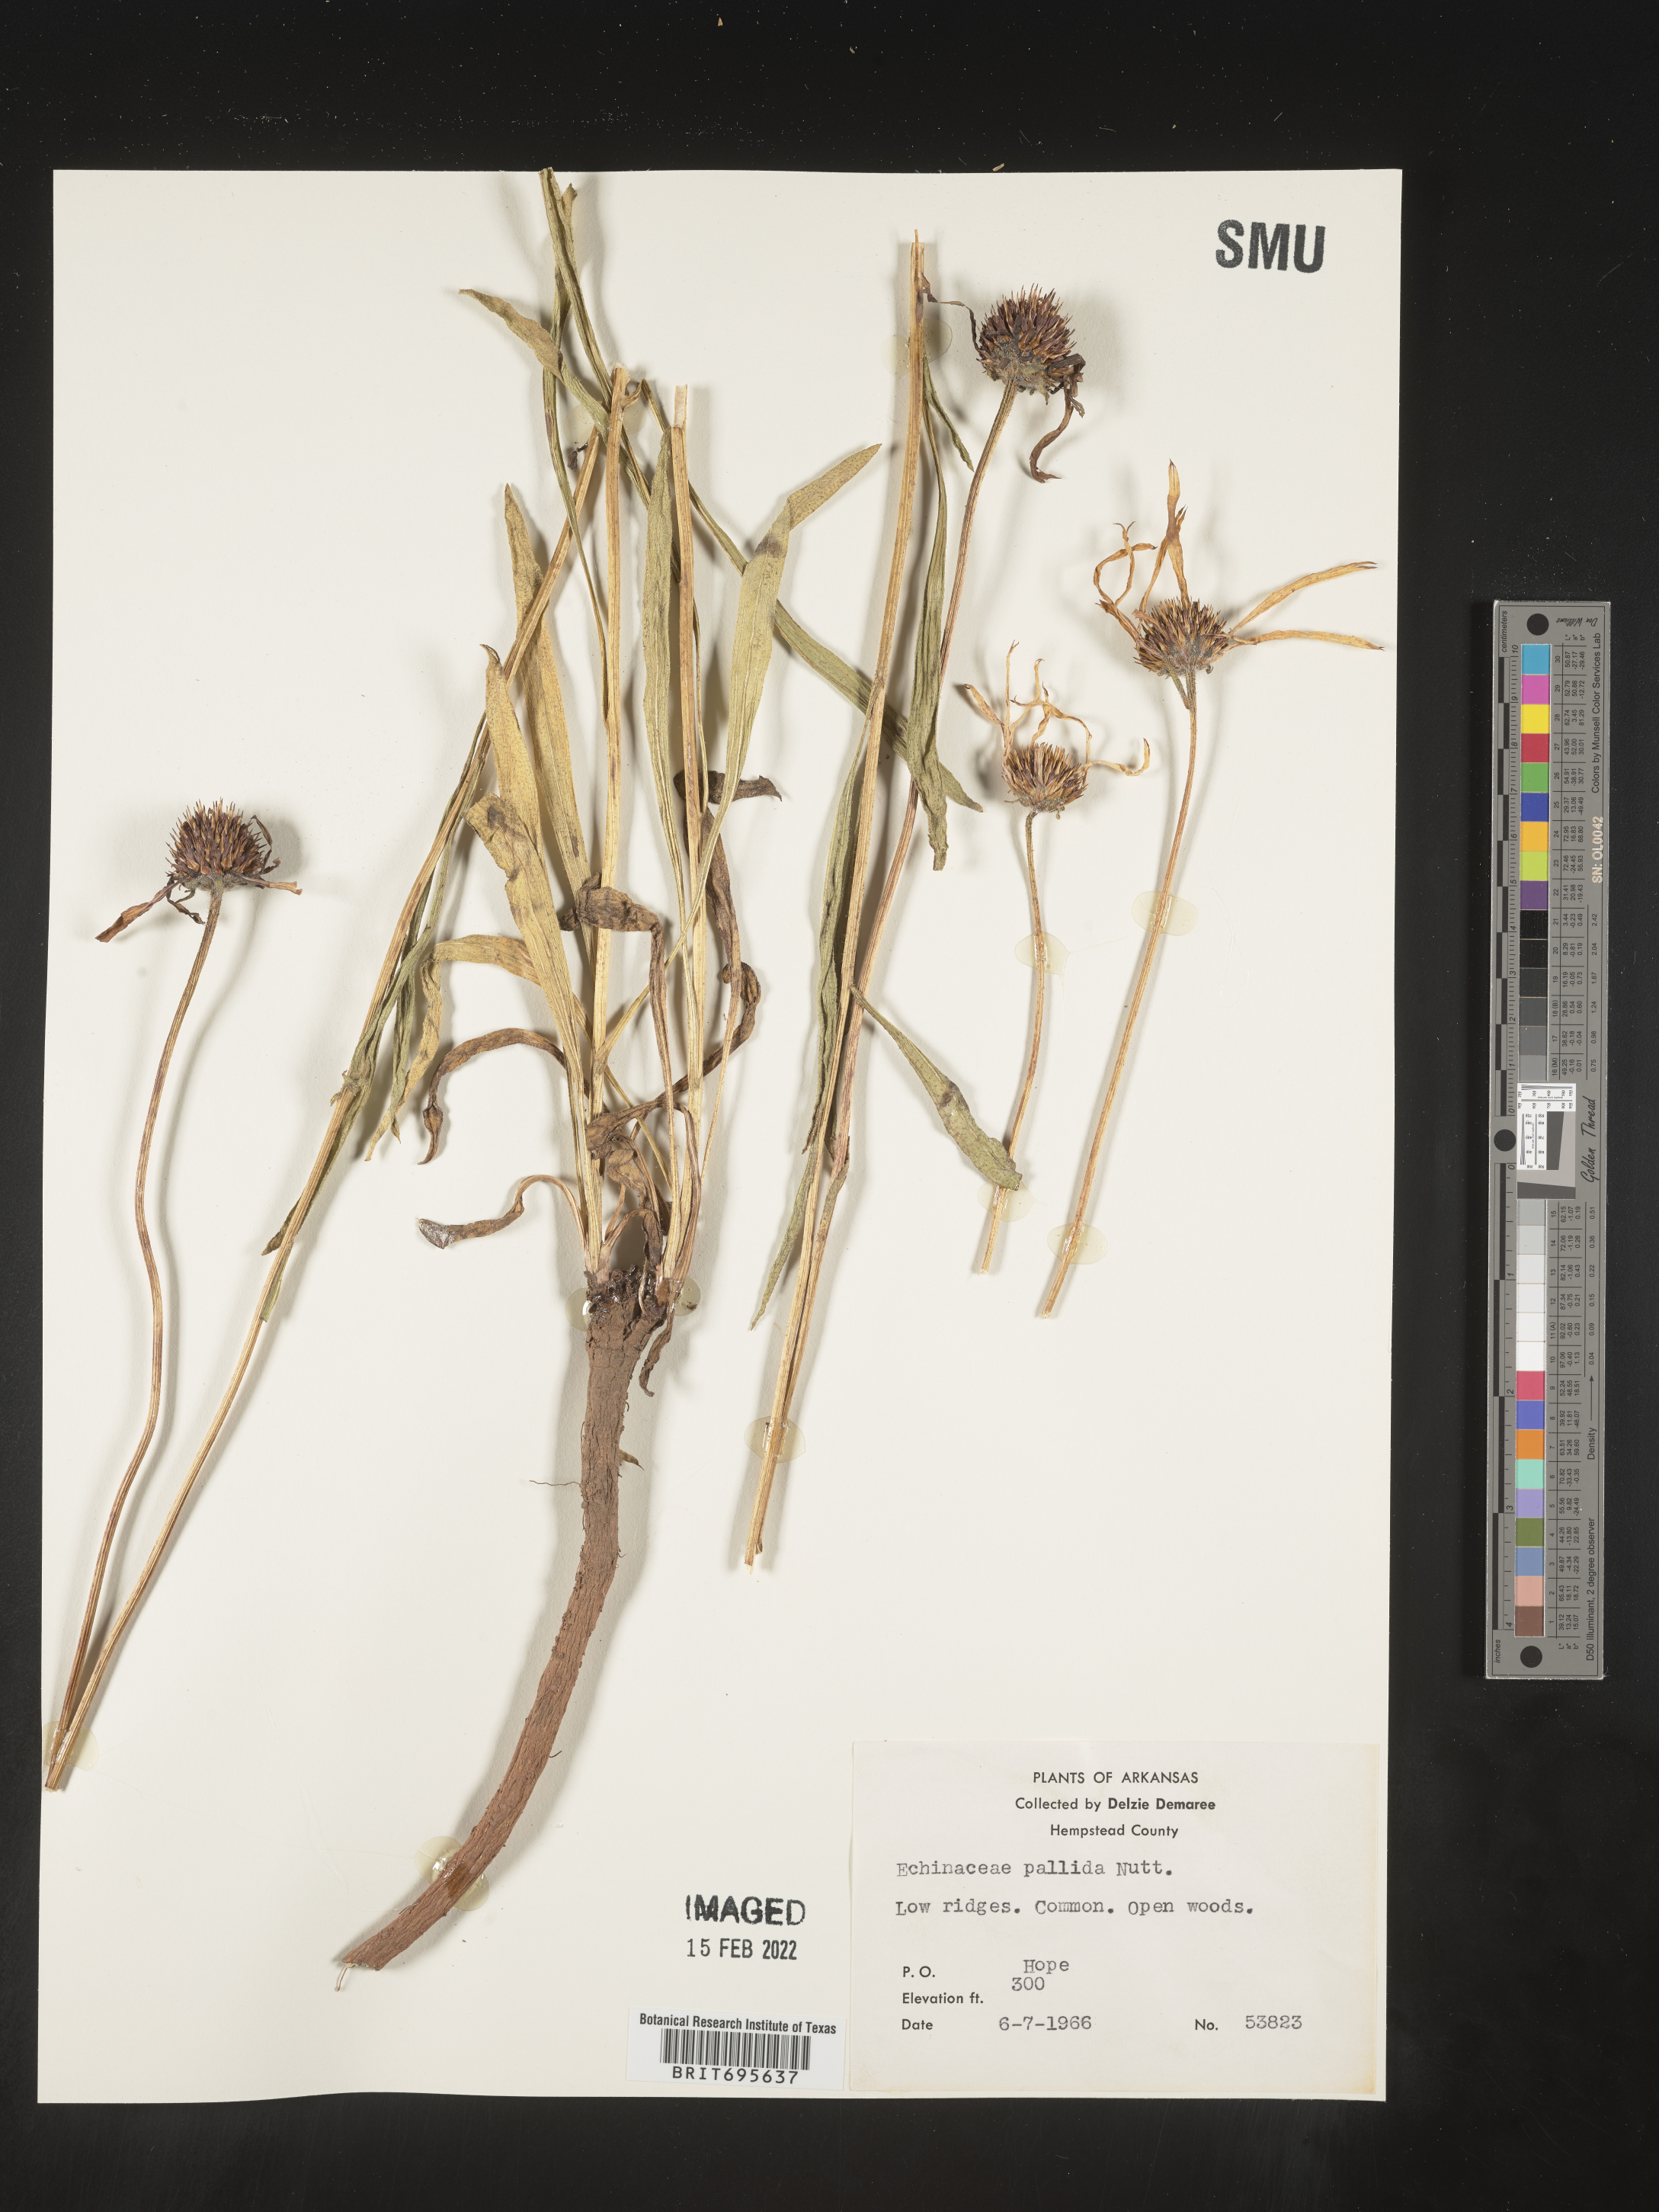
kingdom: Plantae
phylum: Tracheophyta
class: Magnoliopsida
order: Asterales
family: Asteraceae
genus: Echinacea
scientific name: Echinacea pallida
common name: Pale echinacea
